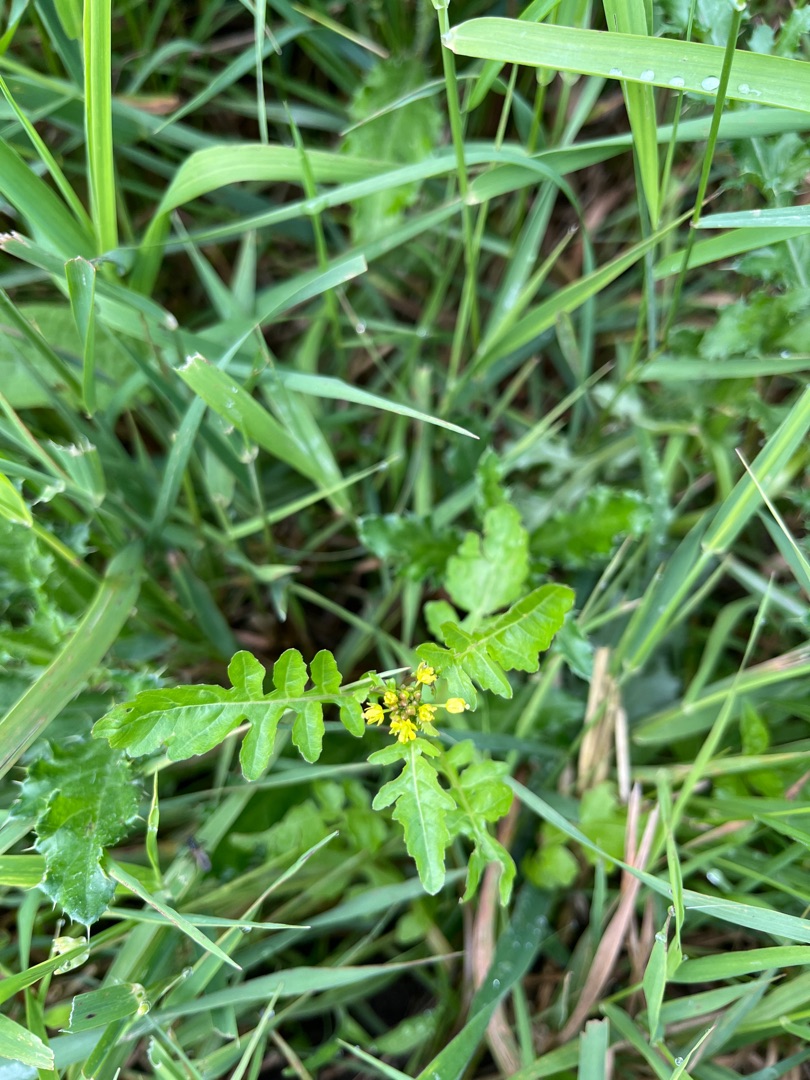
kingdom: Plantae
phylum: Tracheophyta
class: Magnoliopsida
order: Brassicales
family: Brassicaceae
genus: Rorippa
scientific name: Rorippa palustris
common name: Kær-guldkarse
